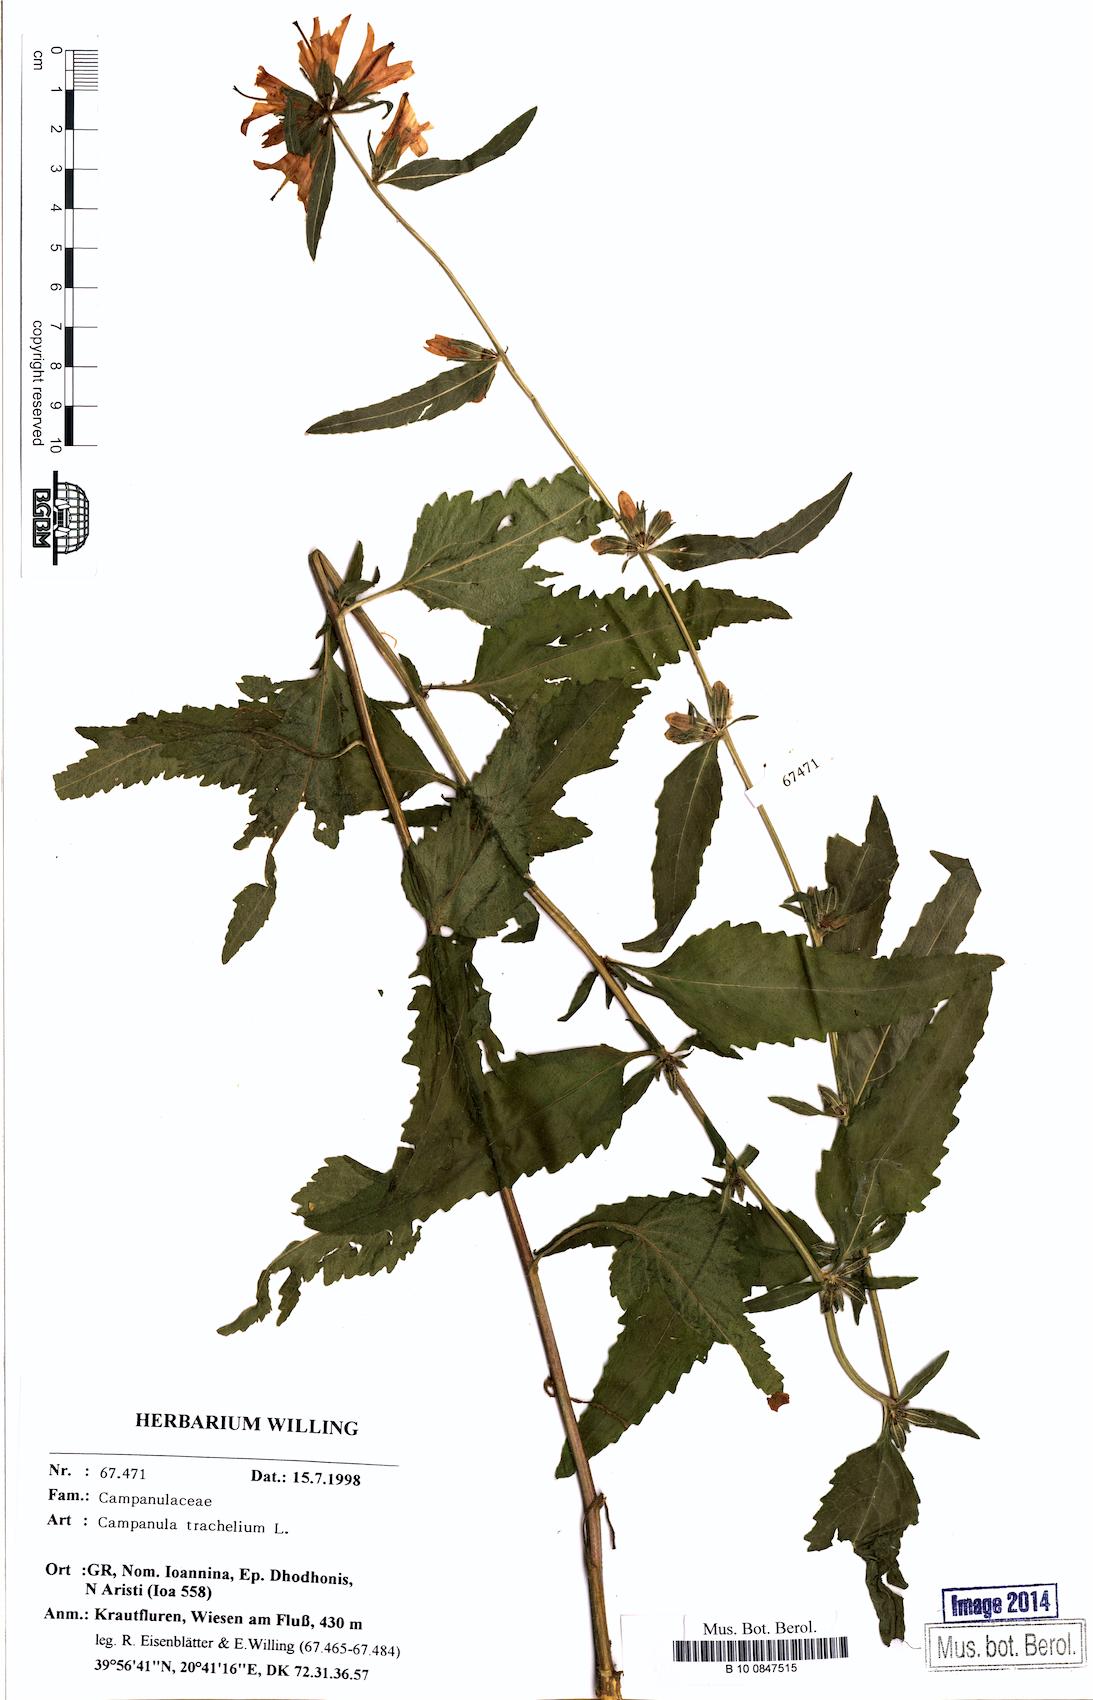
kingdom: Plantae
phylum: Tracheophyta
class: Magnoliopsida
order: Asterales
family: Campanulaceae
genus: Campanula
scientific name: Campanula trachelium
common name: Nettle-leaved bellflower
